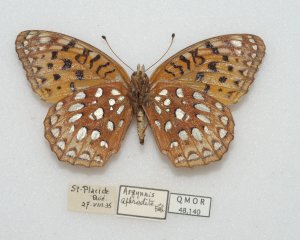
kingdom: Animalia
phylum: Arthropoda
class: Insecta
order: Lepidoptera
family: Nymphalidae
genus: Speyeria
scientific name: Speyeria aphrodite
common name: Aphrodite Fritillary
